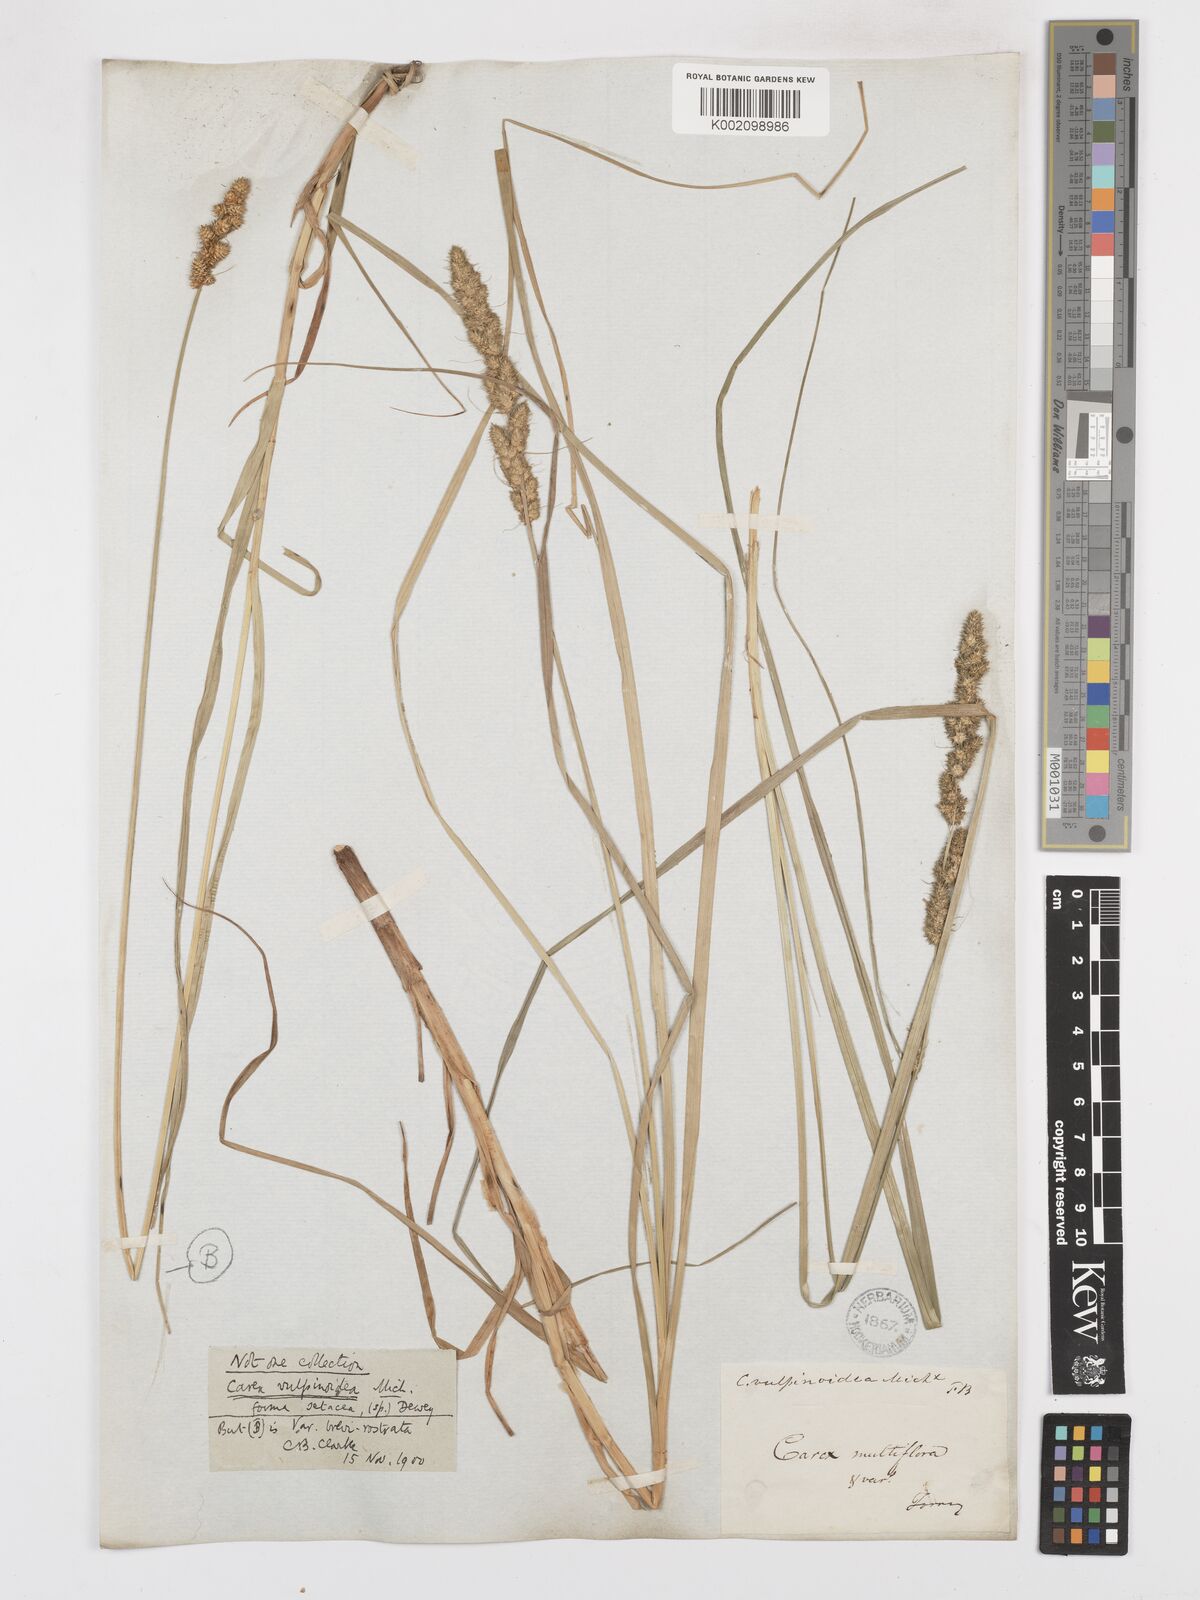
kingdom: Plantae
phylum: Tracheophyta
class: Liliopsida
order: Poales
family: Cyperaceae
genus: Carex
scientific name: Carex vulpinoidea
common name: American fox-sedge
